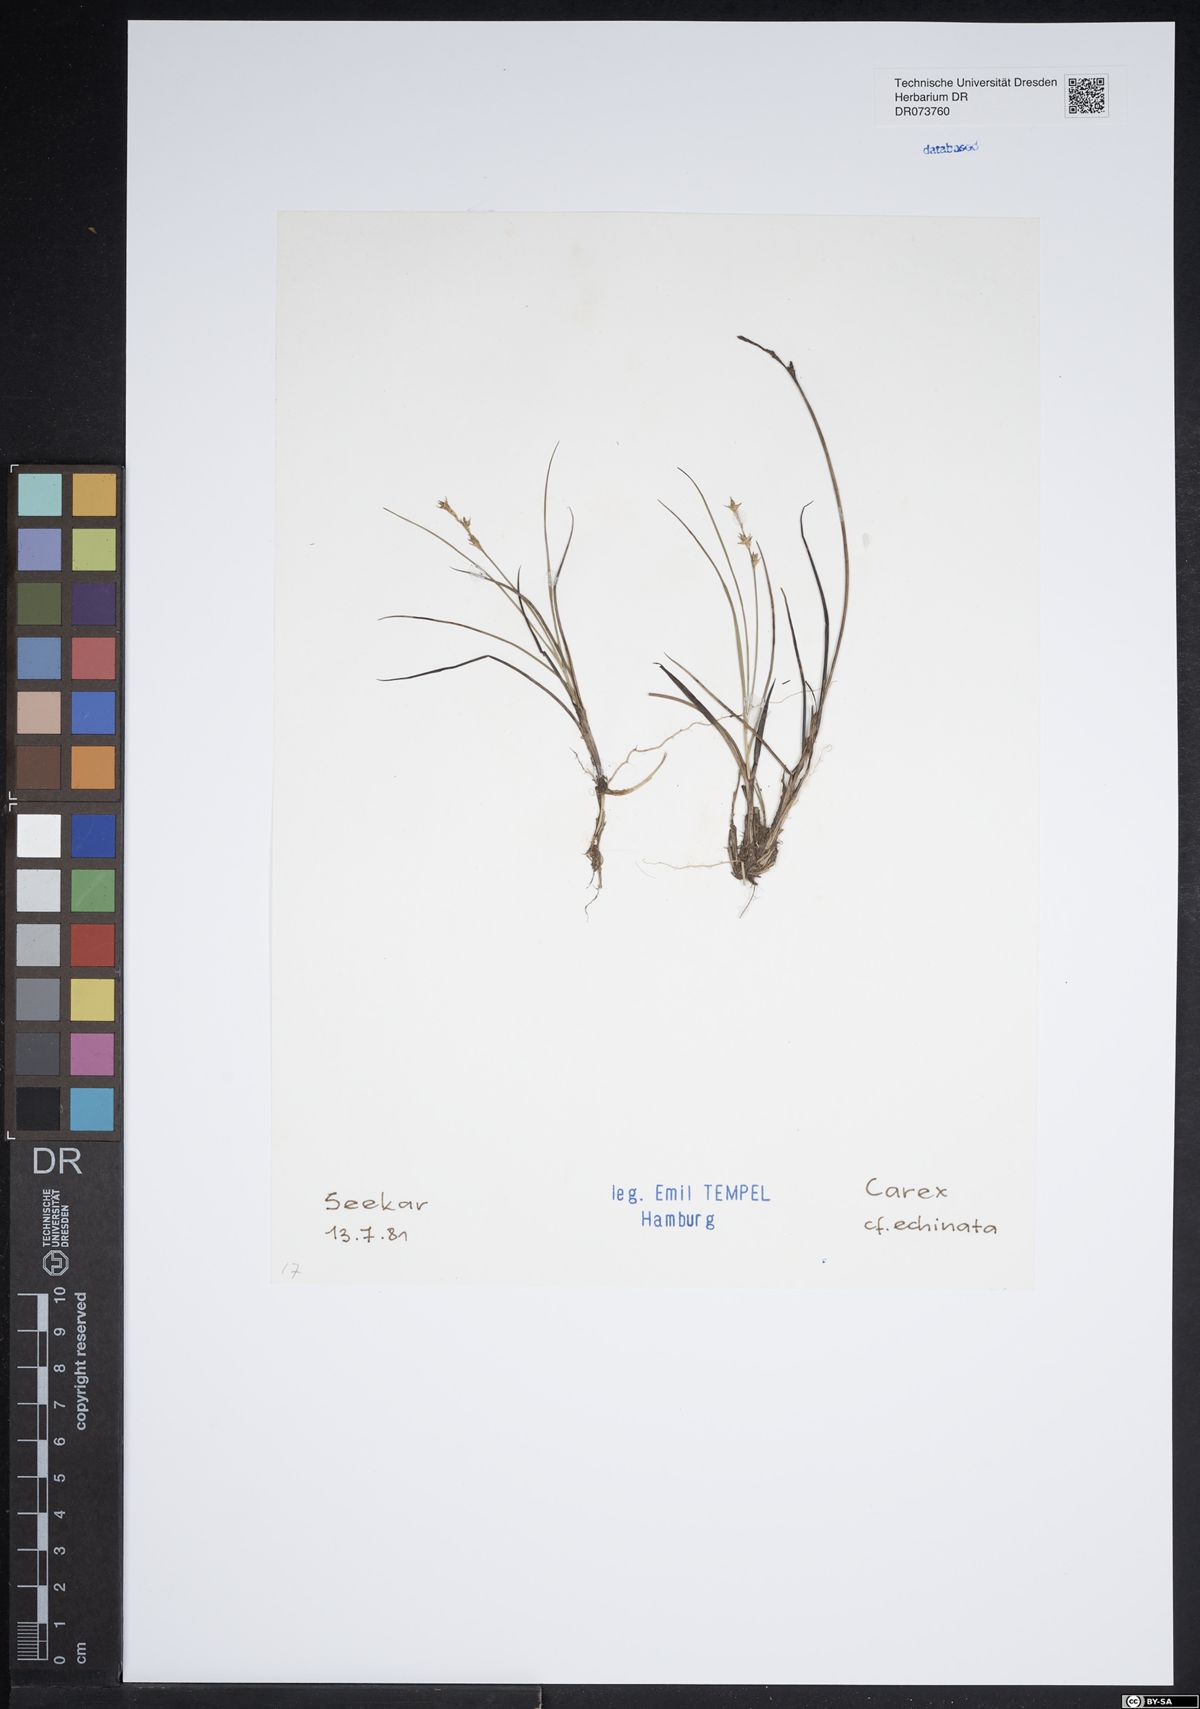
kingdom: Plantae
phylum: Tracheophyta
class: Liliopsida
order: Poales
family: Cyperaceae
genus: Carex
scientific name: Carex echinata
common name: Star sedge
